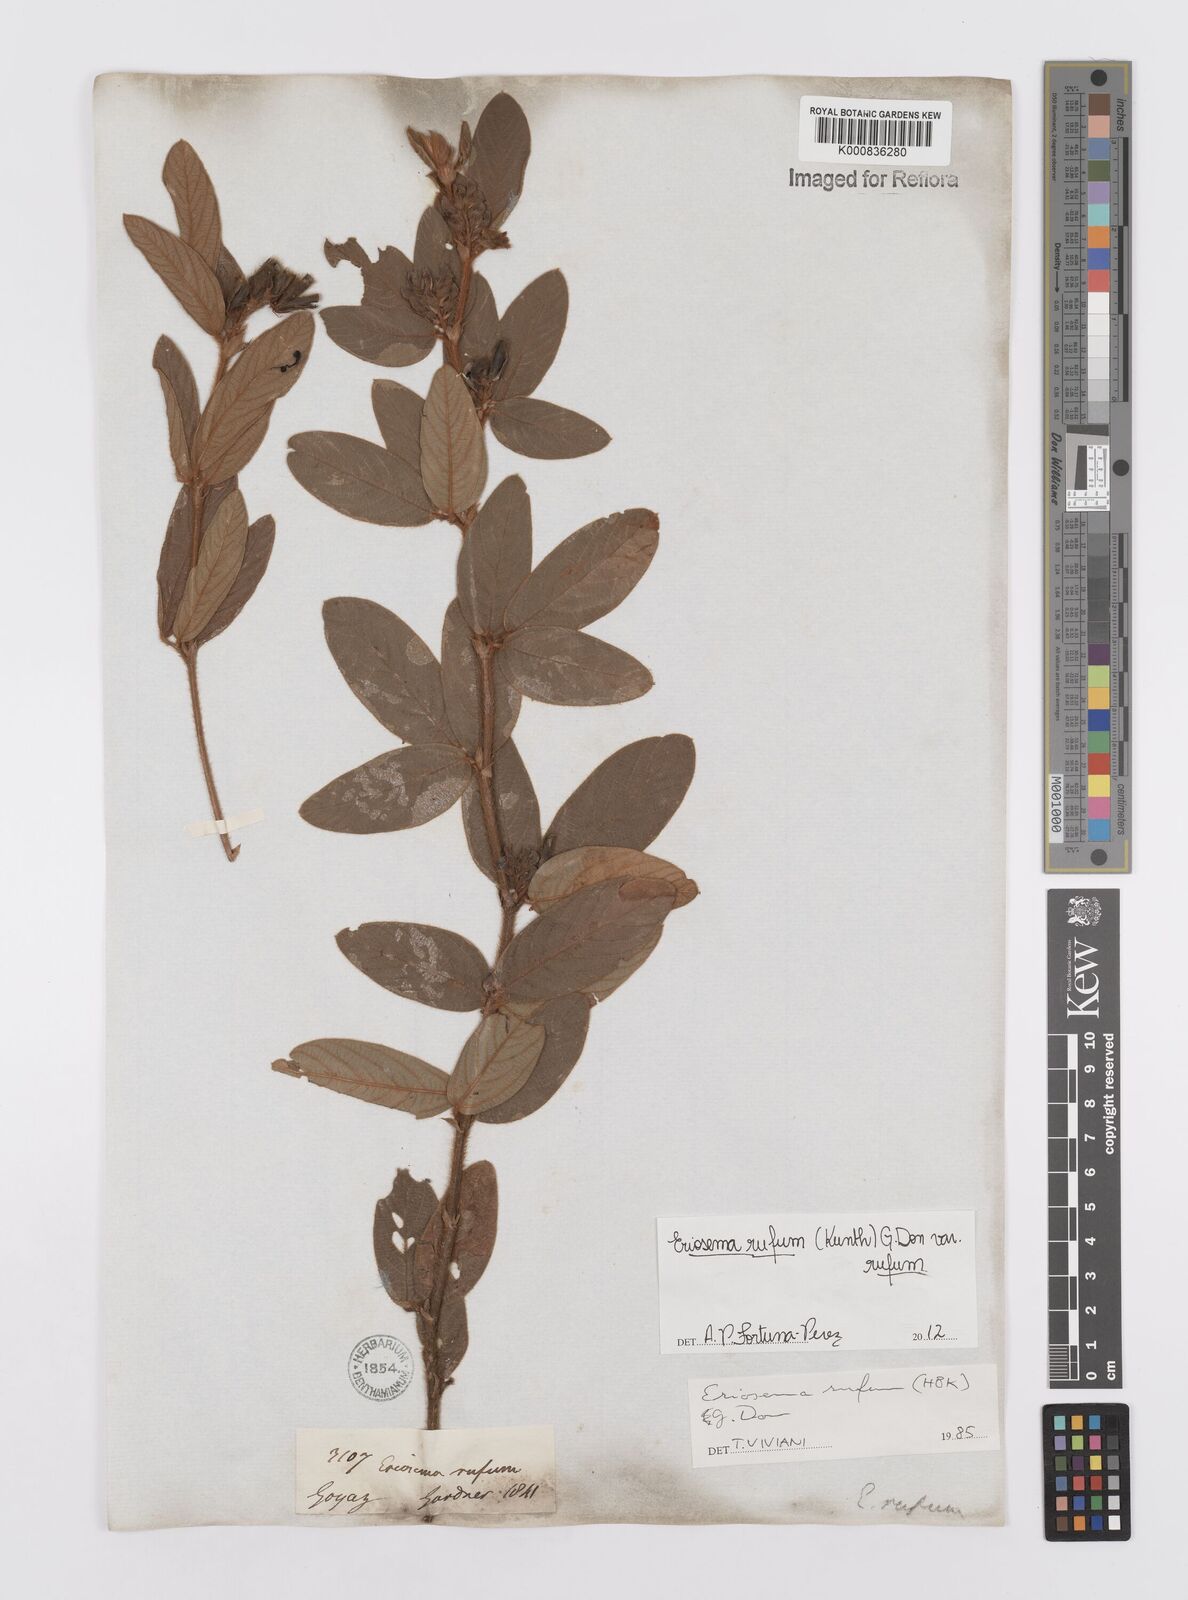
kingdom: Plantae
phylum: Tracheophyta
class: Magnoliopsida
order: Fabales
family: Fabaceae
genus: Eriosema
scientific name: Eriosema rufum
